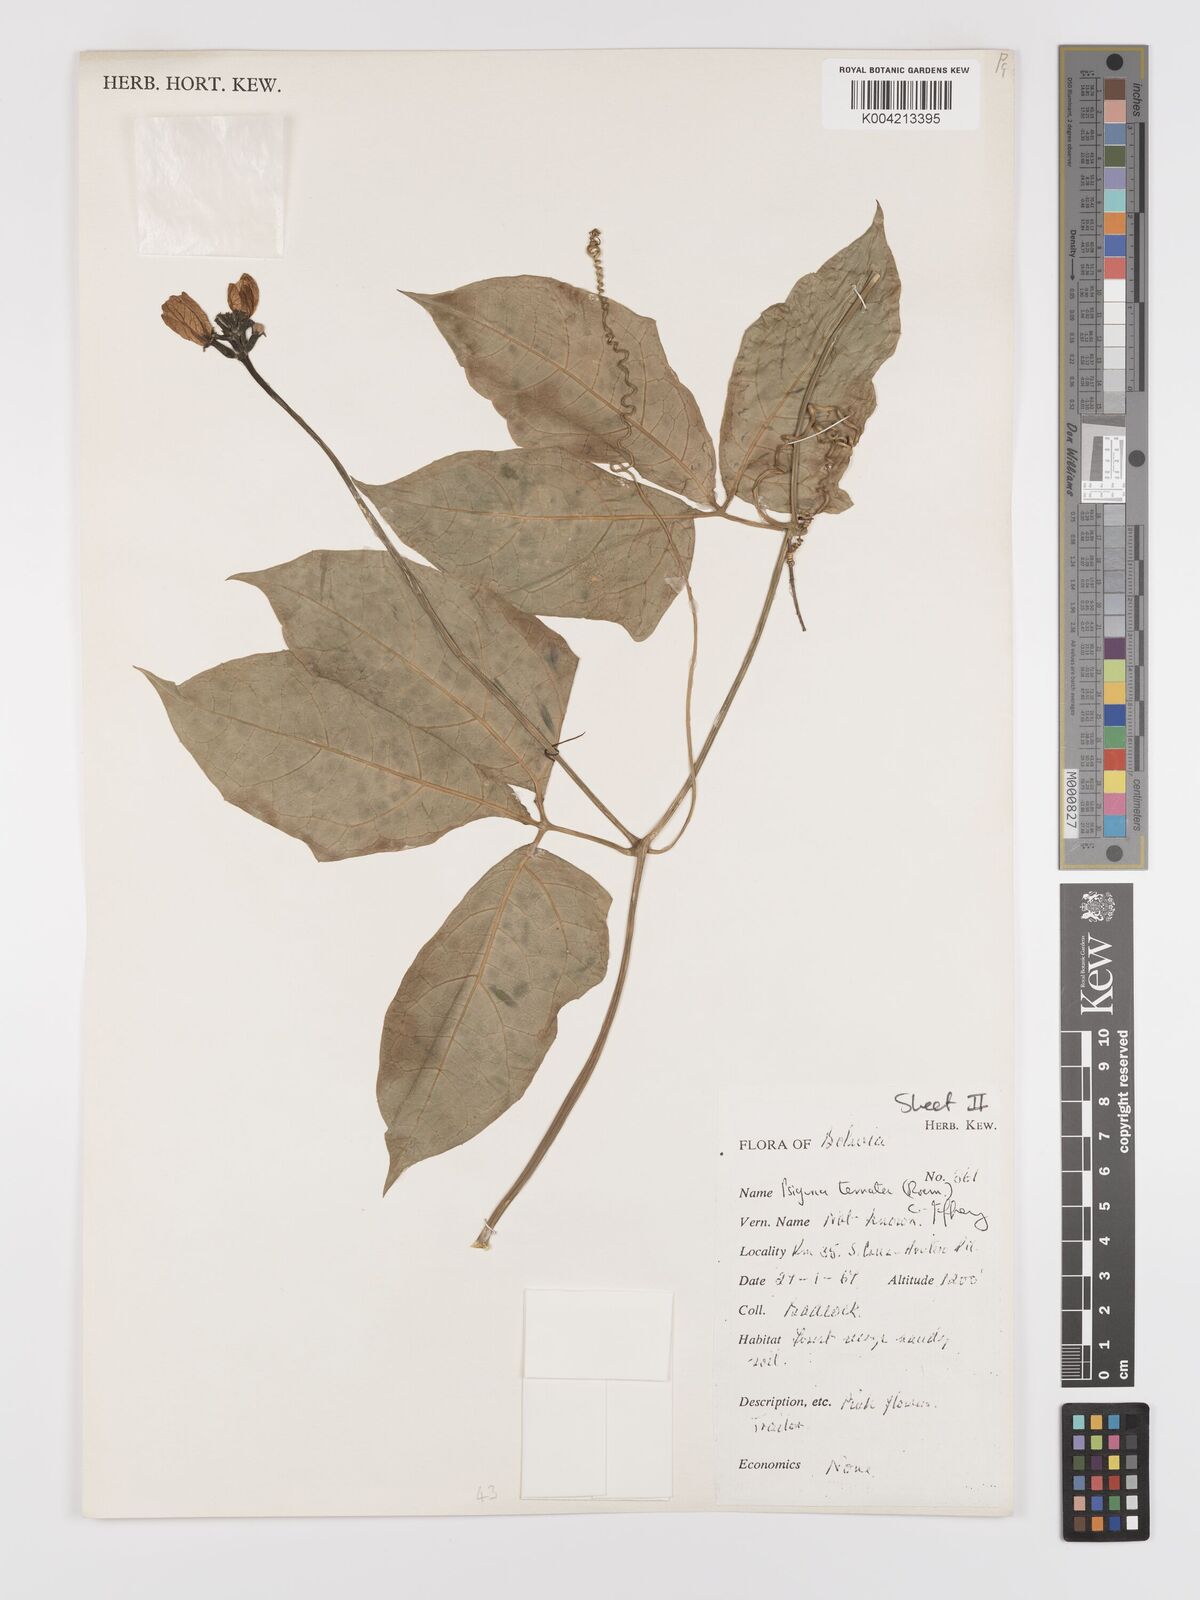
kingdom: Plantae
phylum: Tracheophyta
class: Magnoliopsida
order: Cucurbitales
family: Cucurbitaceae
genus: Psiguria
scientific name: Psiguria ternata
